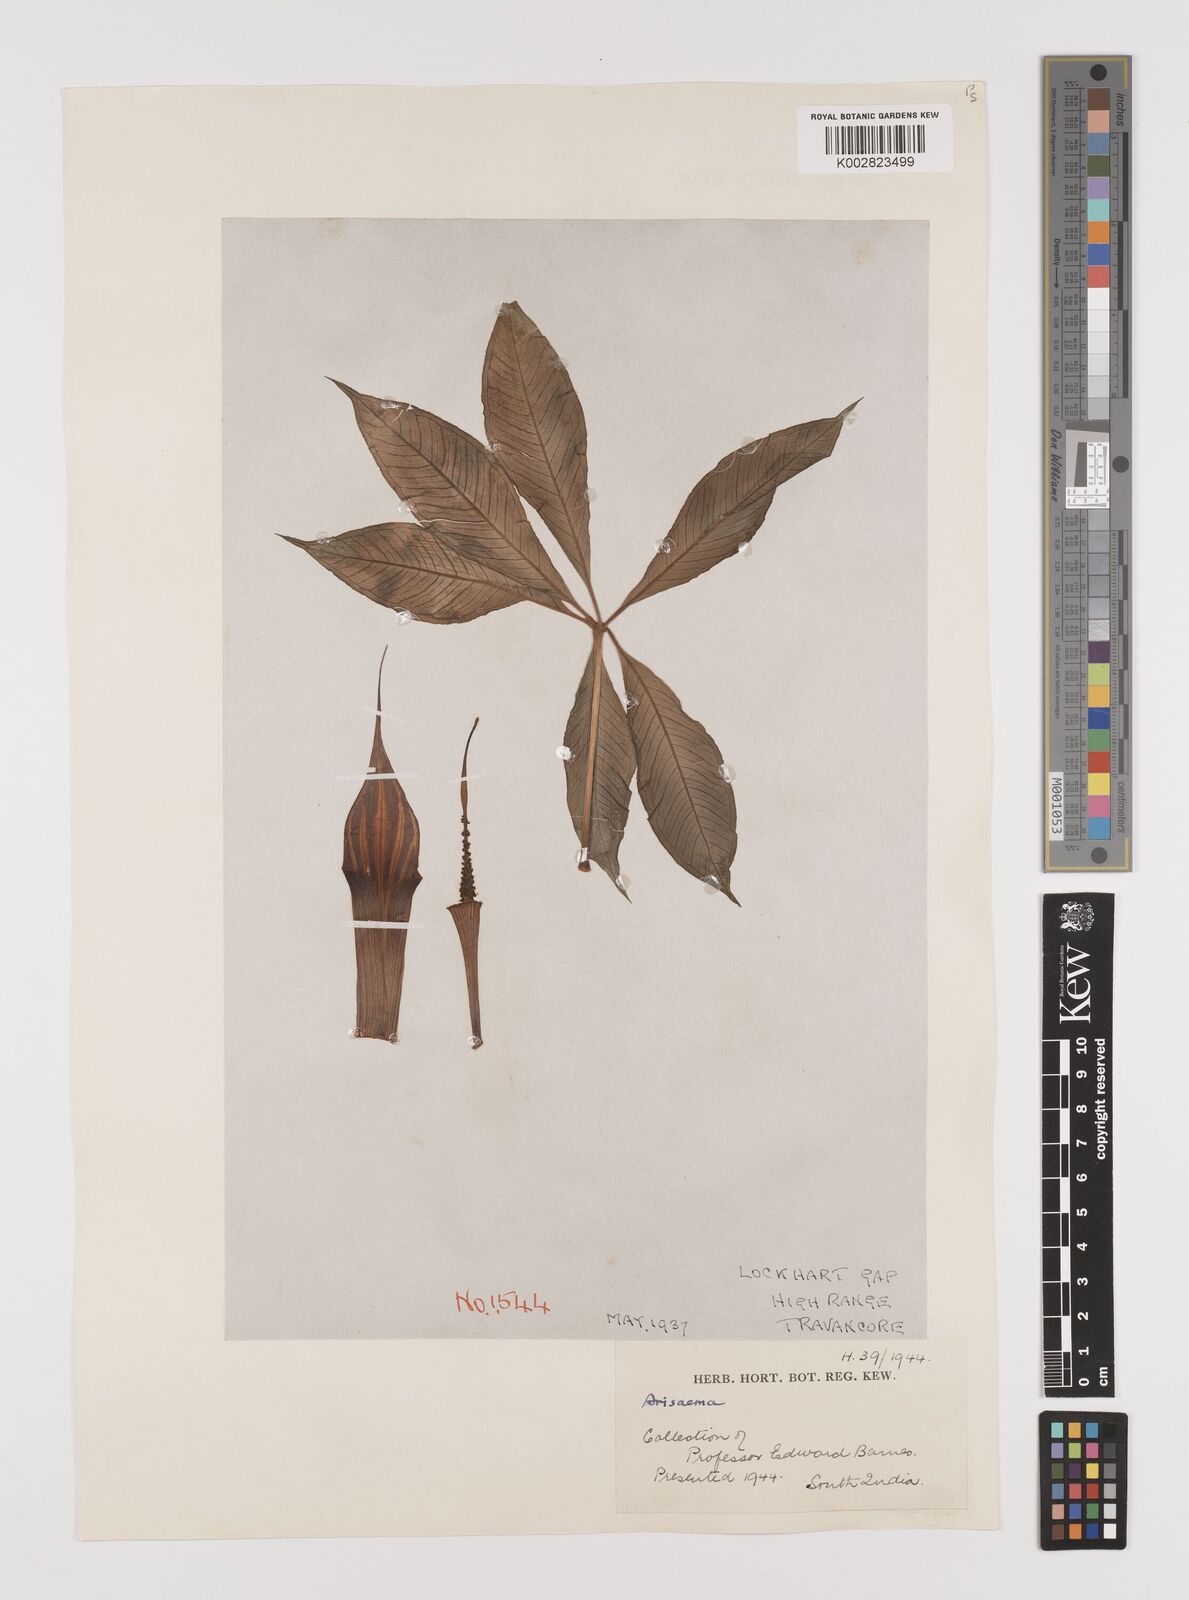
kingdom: Plantae
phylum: Tracheophyta
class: Liliopsida
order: Alismatales
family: Araceae
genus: Arisaema
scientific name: Arisaema
